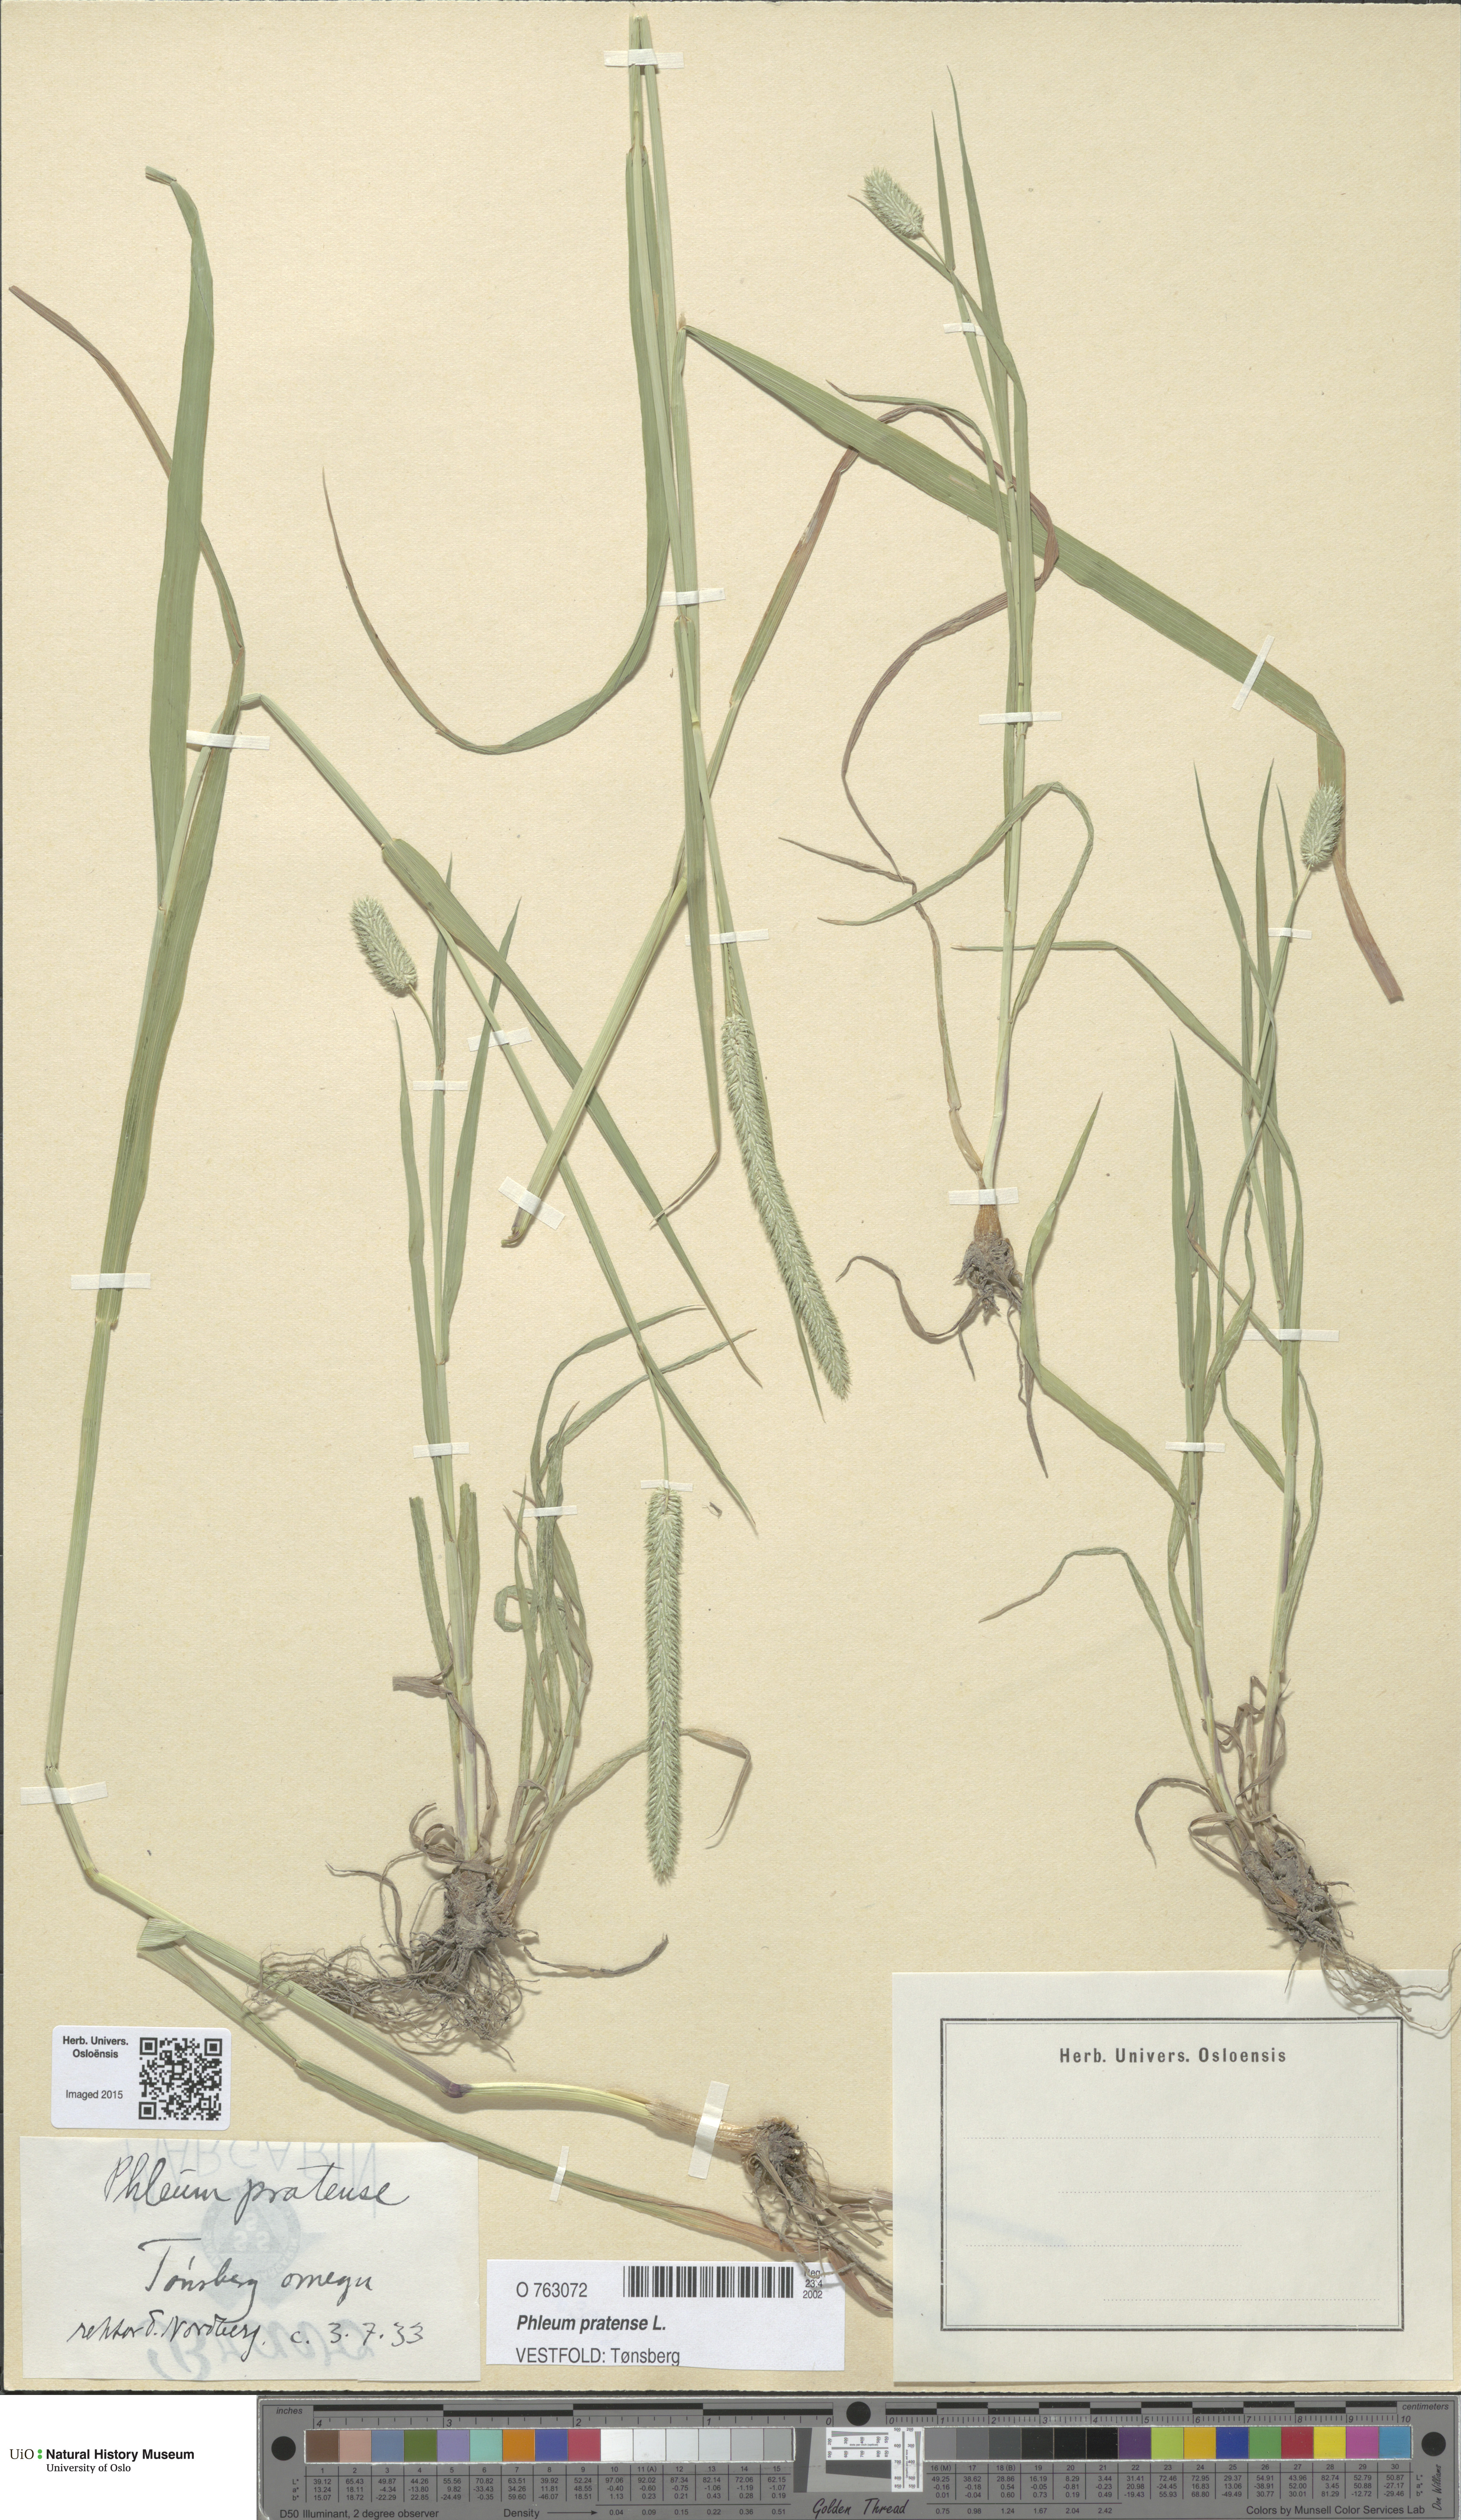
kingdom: Plantae
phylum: Tracheophyta
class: Liliopsida
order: Poales
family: Poaceae
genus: Phleum
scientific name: Phleum pratense
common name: Timothy grass
